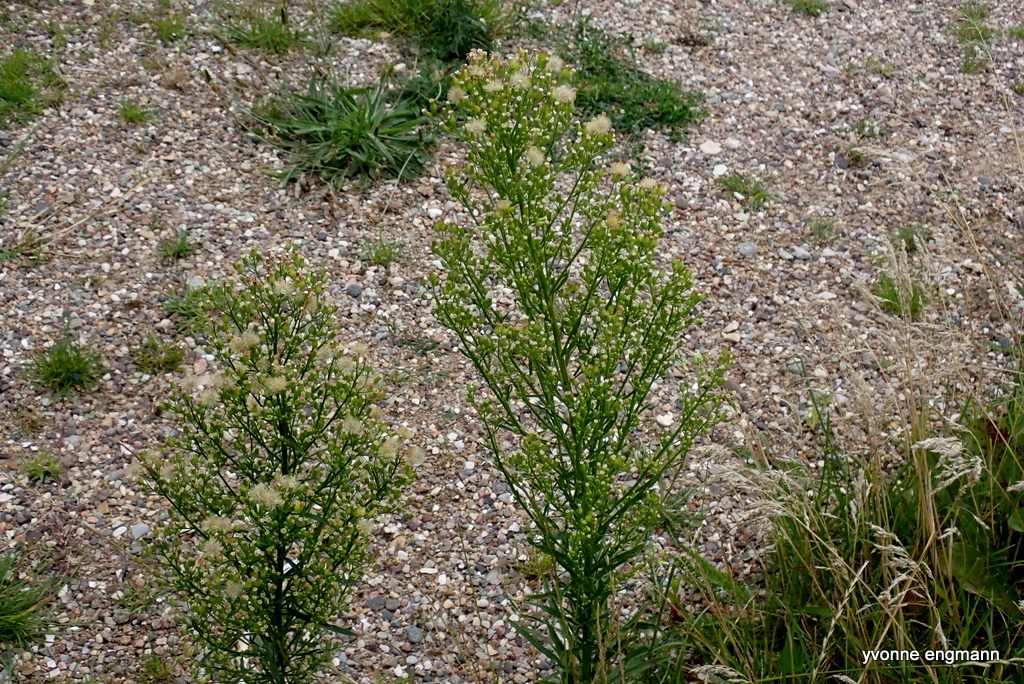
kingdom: Plantae
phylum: Tracheophyta
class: Magnoliopsida
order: Asterales
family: Asteraceae
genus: Erigeron
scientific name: Erigeron canadensis
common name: Kanadisk bakkestjerne
